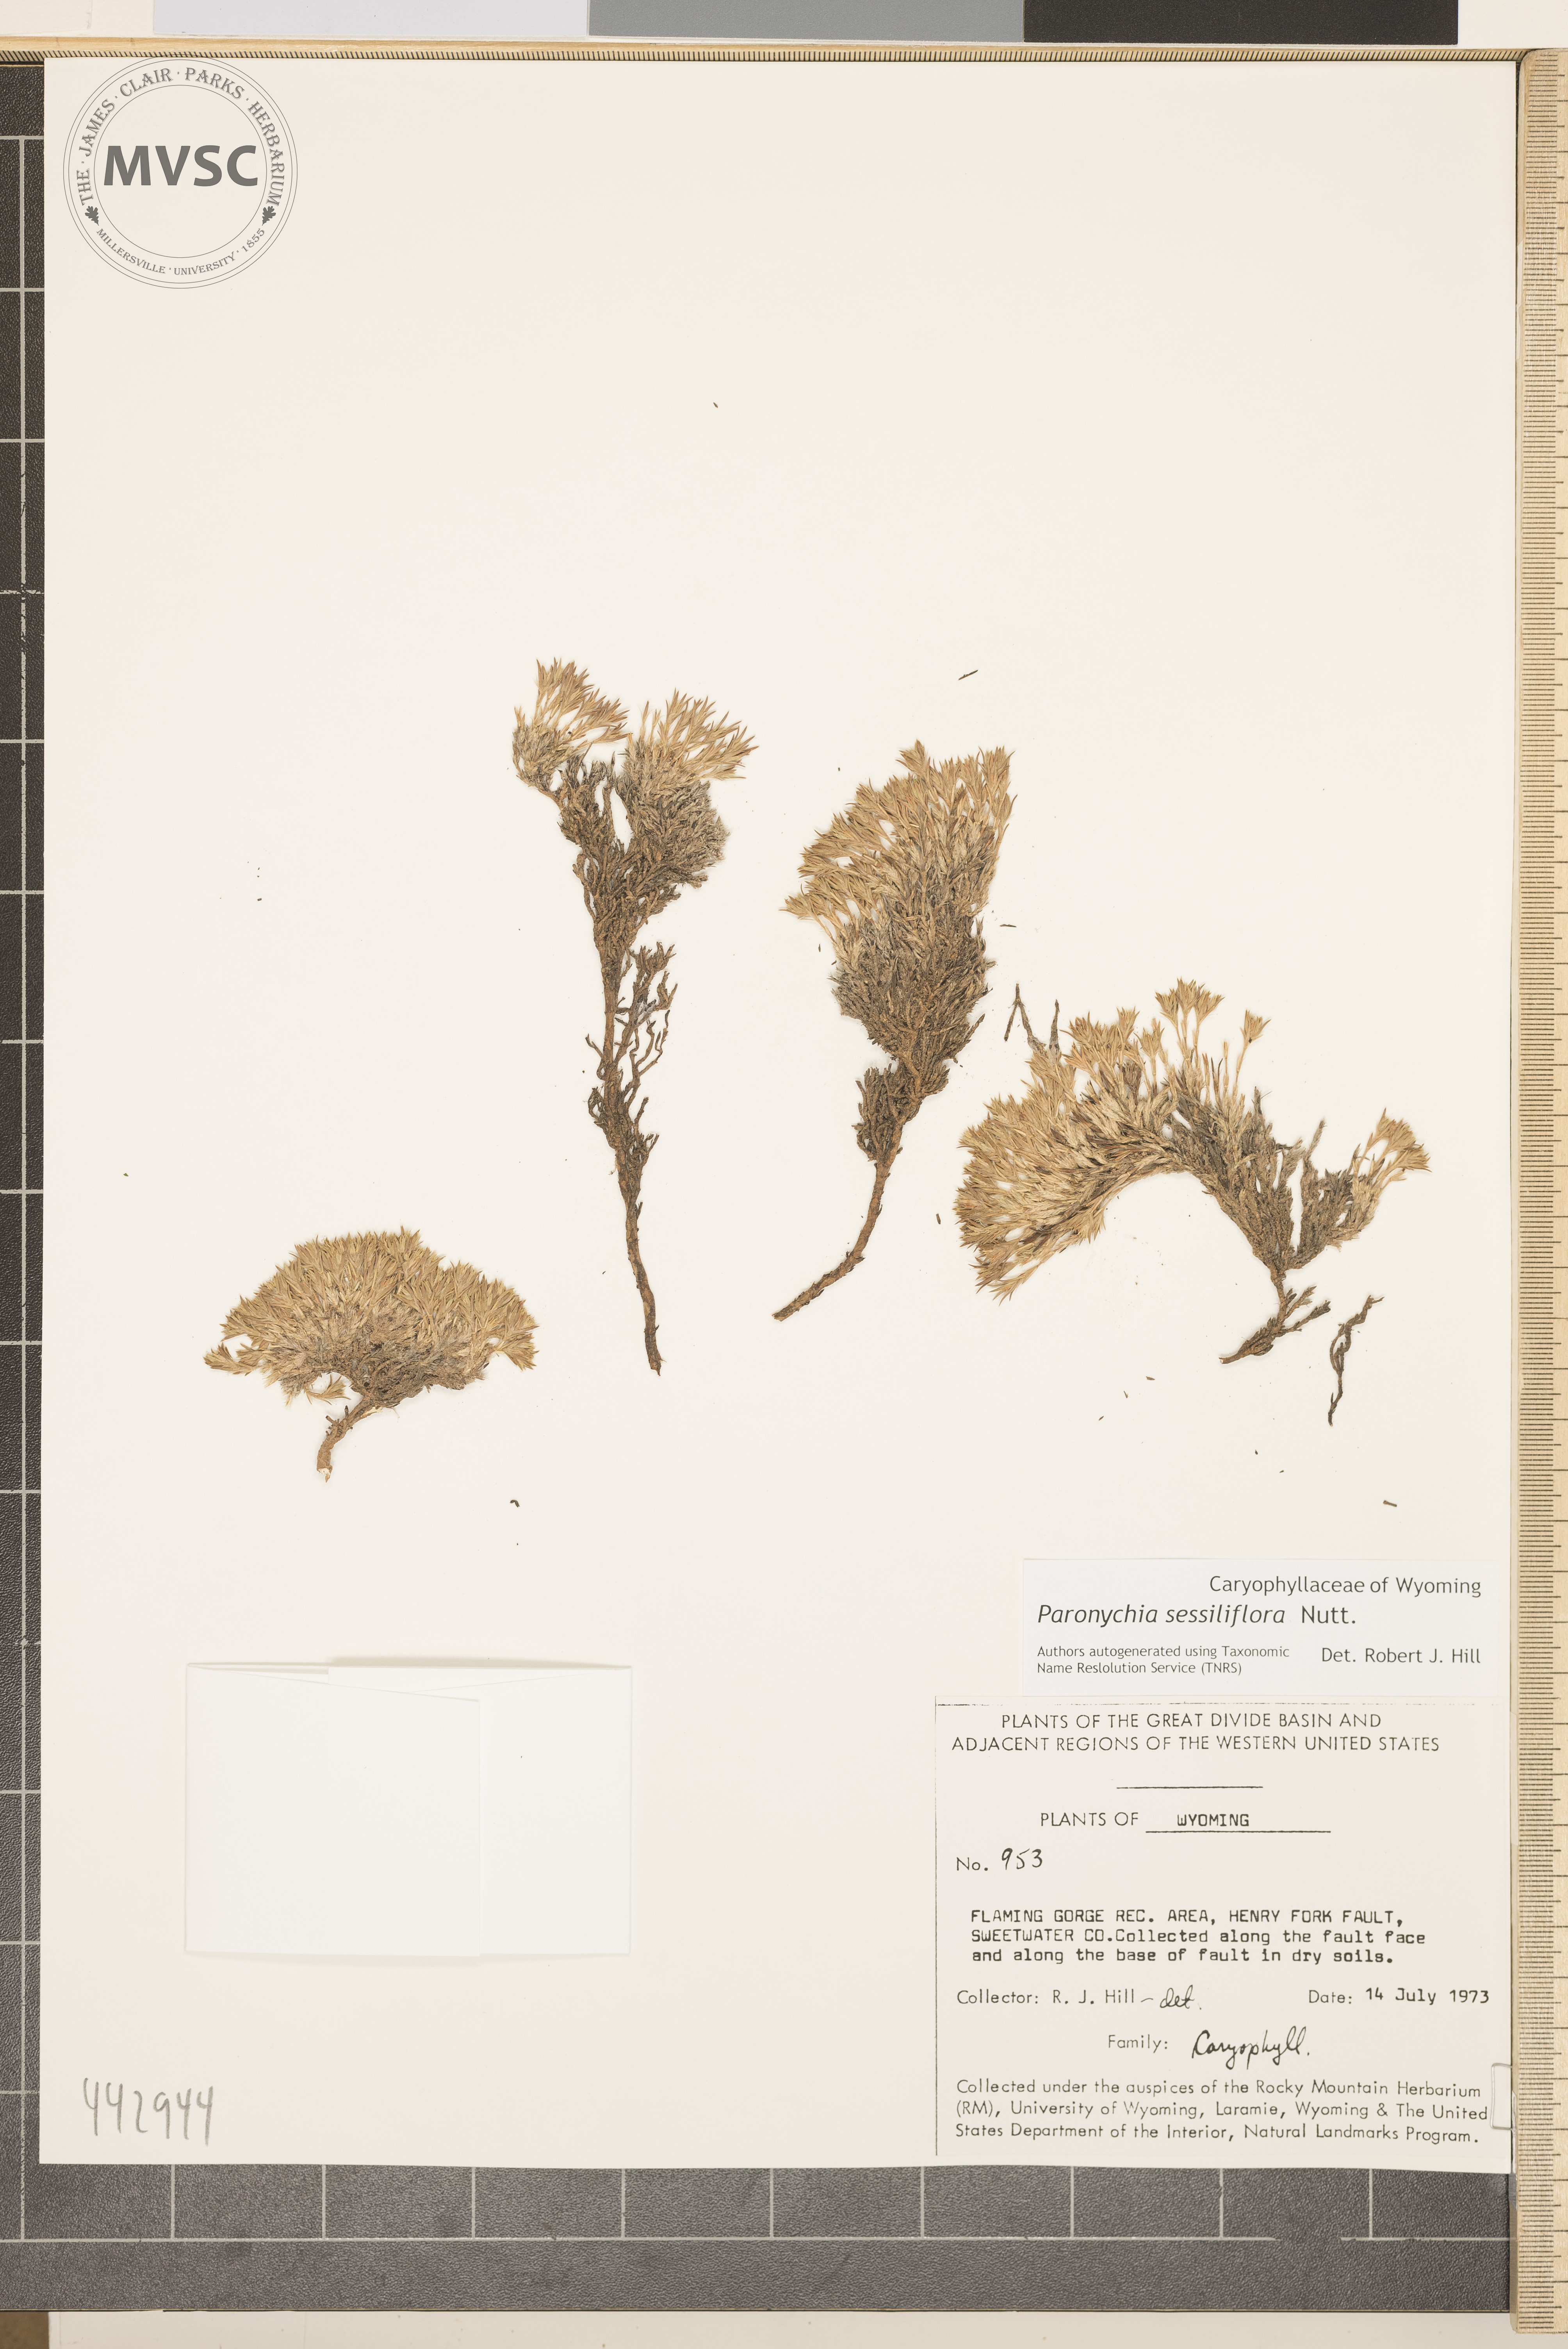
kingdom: Plantae
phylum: Tracheophyta
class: Magnoliopsida
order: Caryophyllales
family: Caryophyllaceae
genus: Paronychia
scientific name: Paronychia sessiliflora
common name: Creeping nailwort
